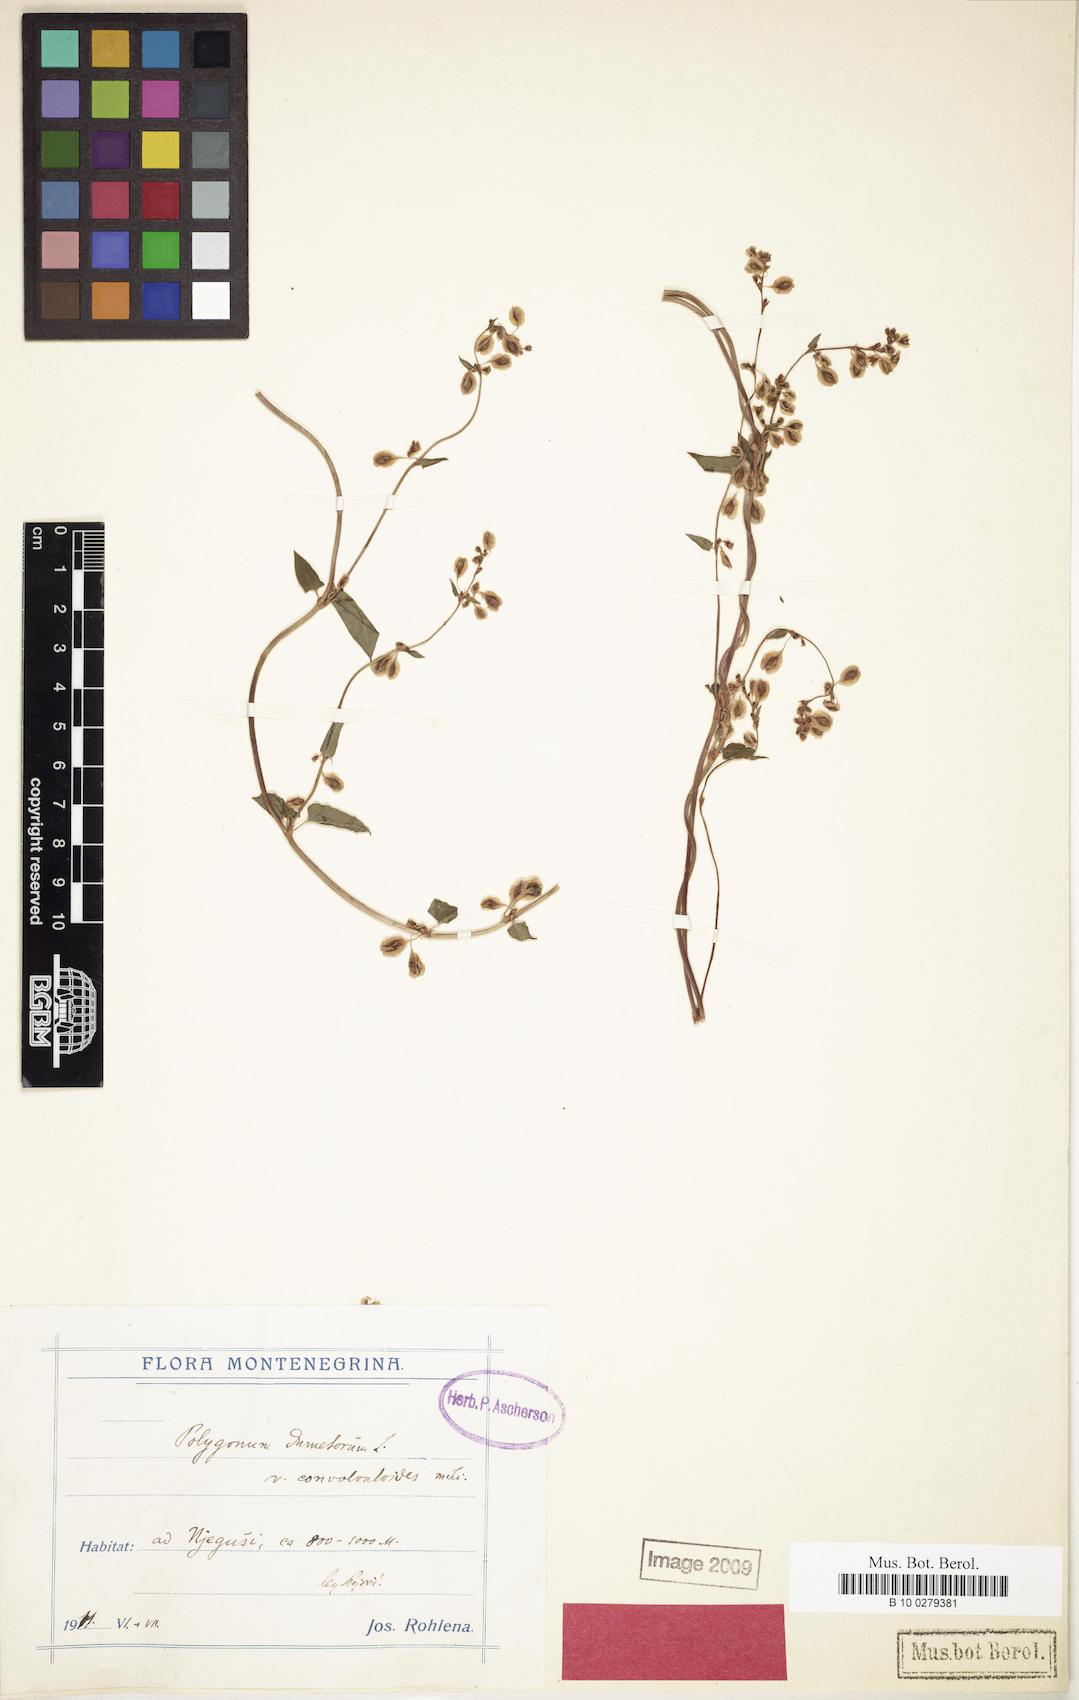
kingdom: Plantae
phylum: Tracheophyta
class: Magnoliopsida
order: Caryophyllales
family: Polygonaceae
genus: Fallopia
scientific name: Fallopia dumetorum
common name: Copse-bindweed
